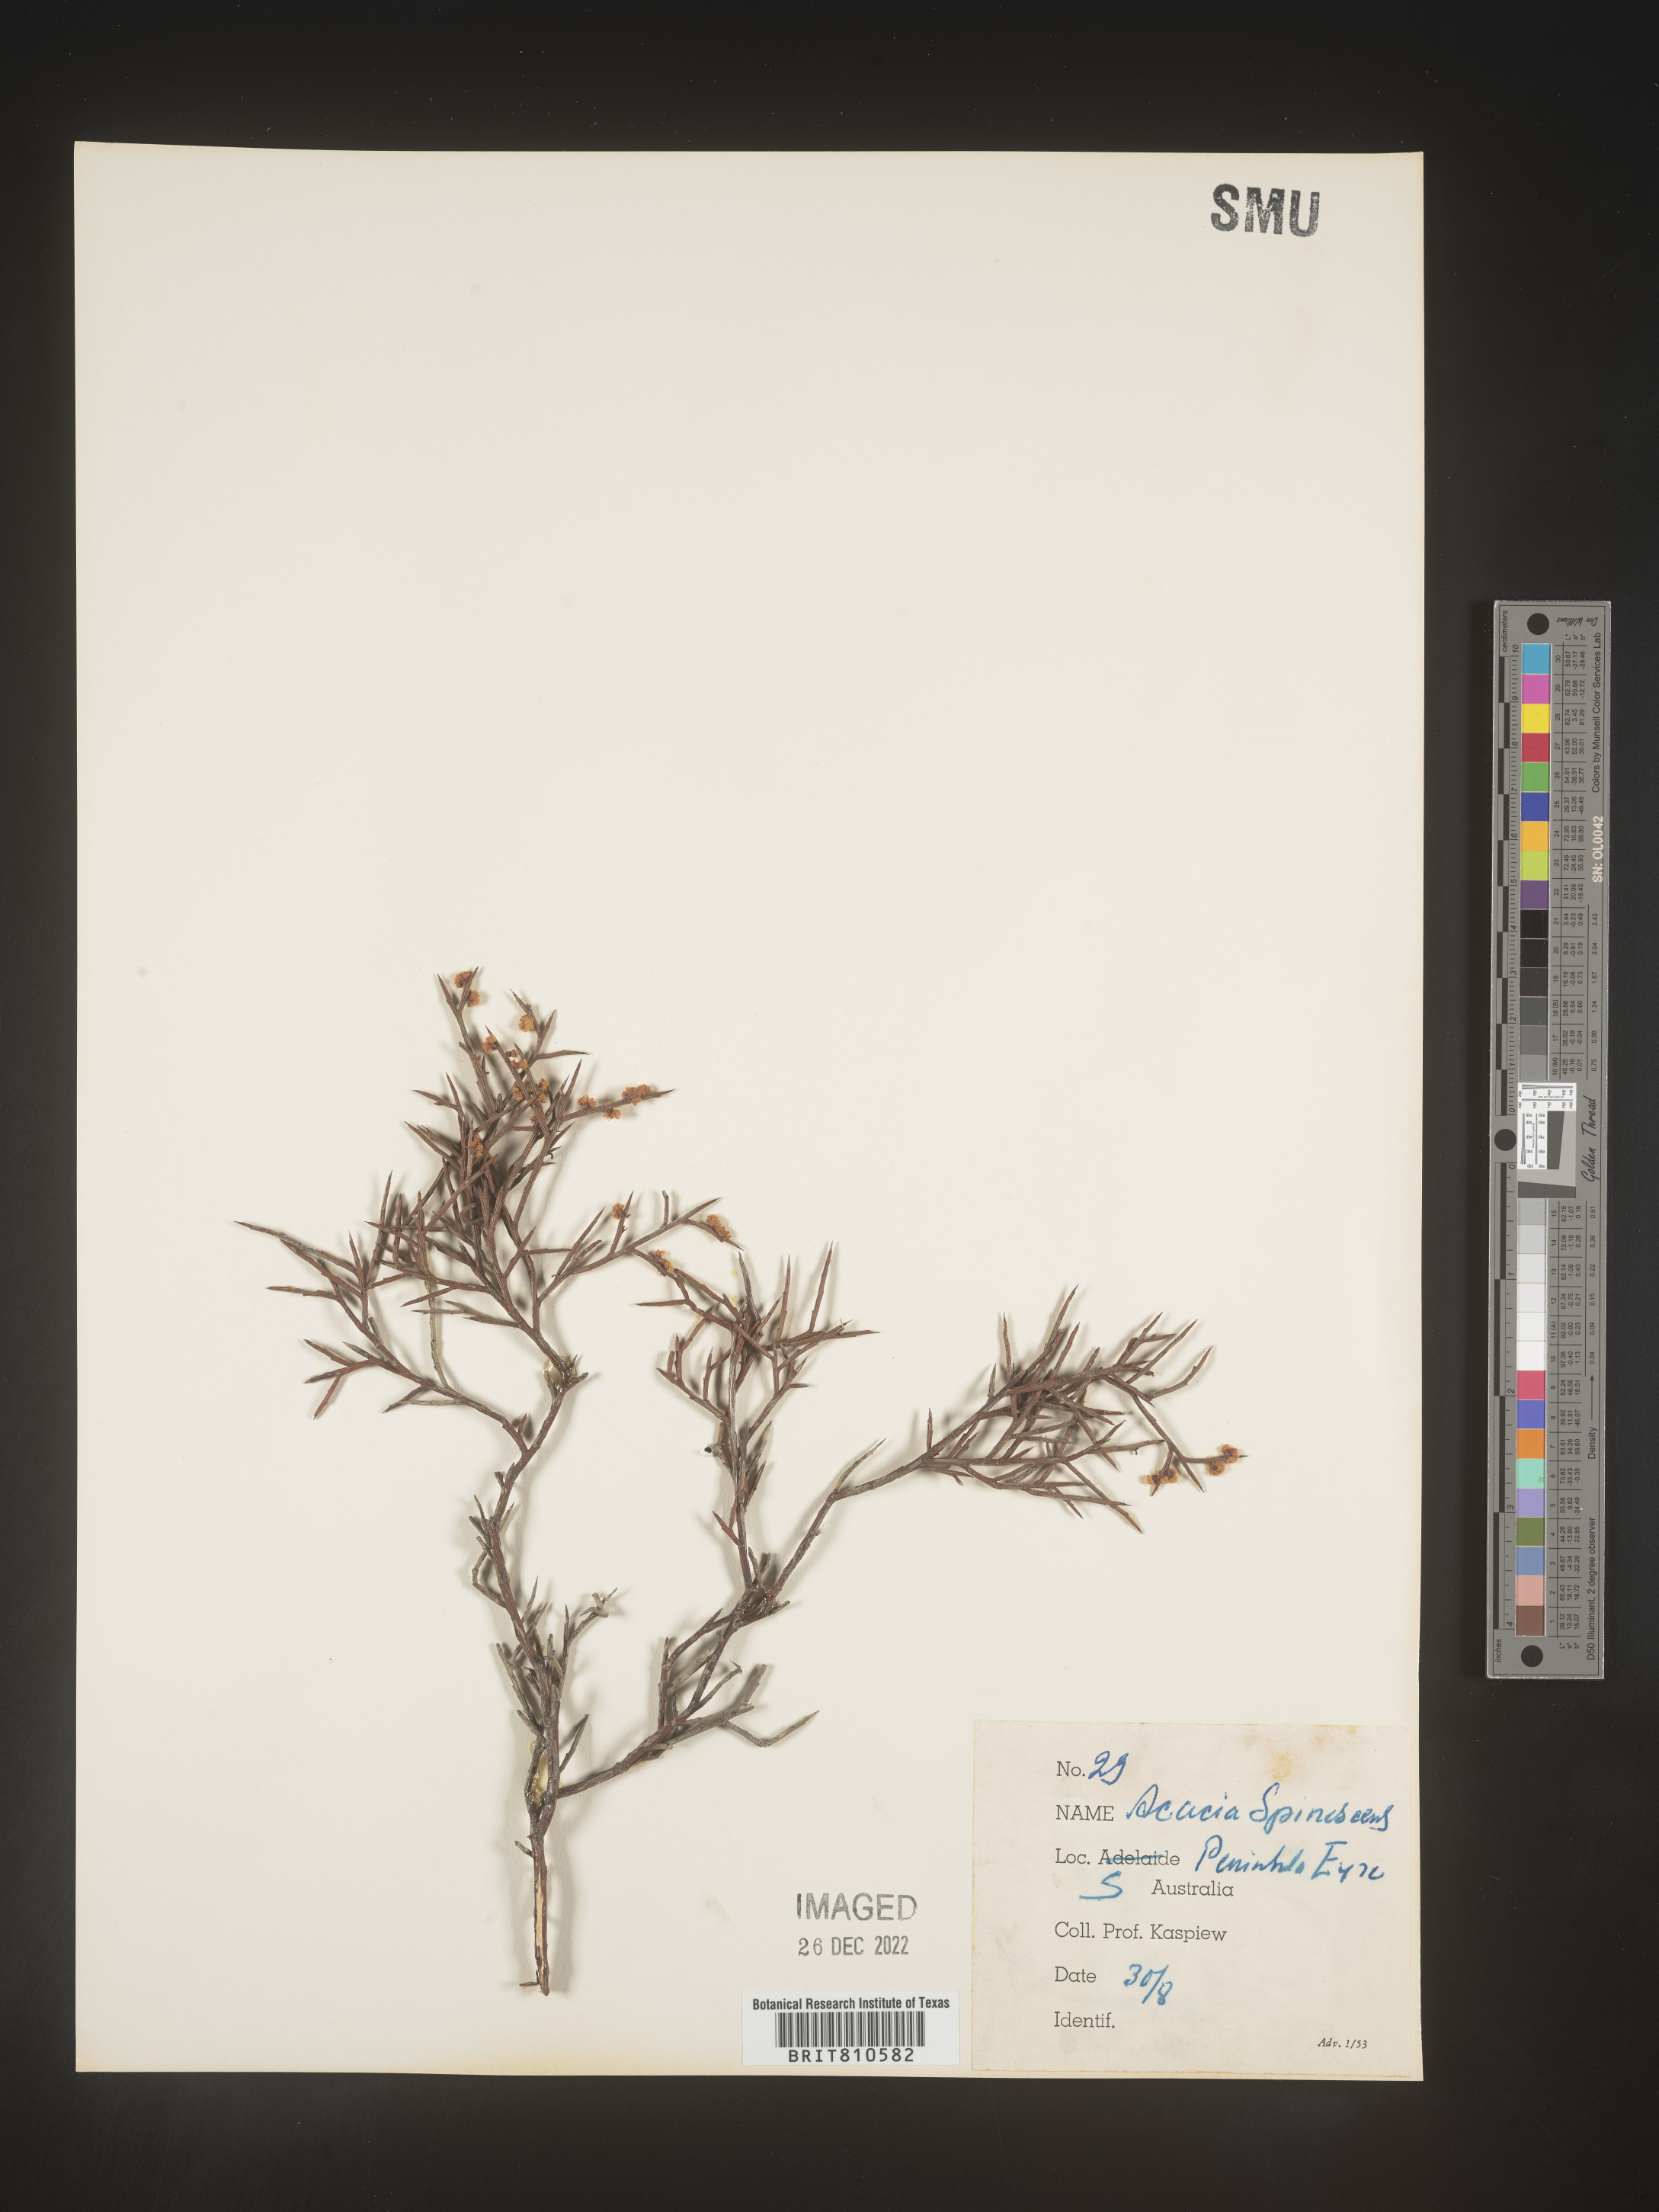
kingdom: Plantae
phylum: Tracheophyta
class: Magnoliopsida
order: Fabales
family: Fabaceae
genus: Acacia
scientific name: Acacia
